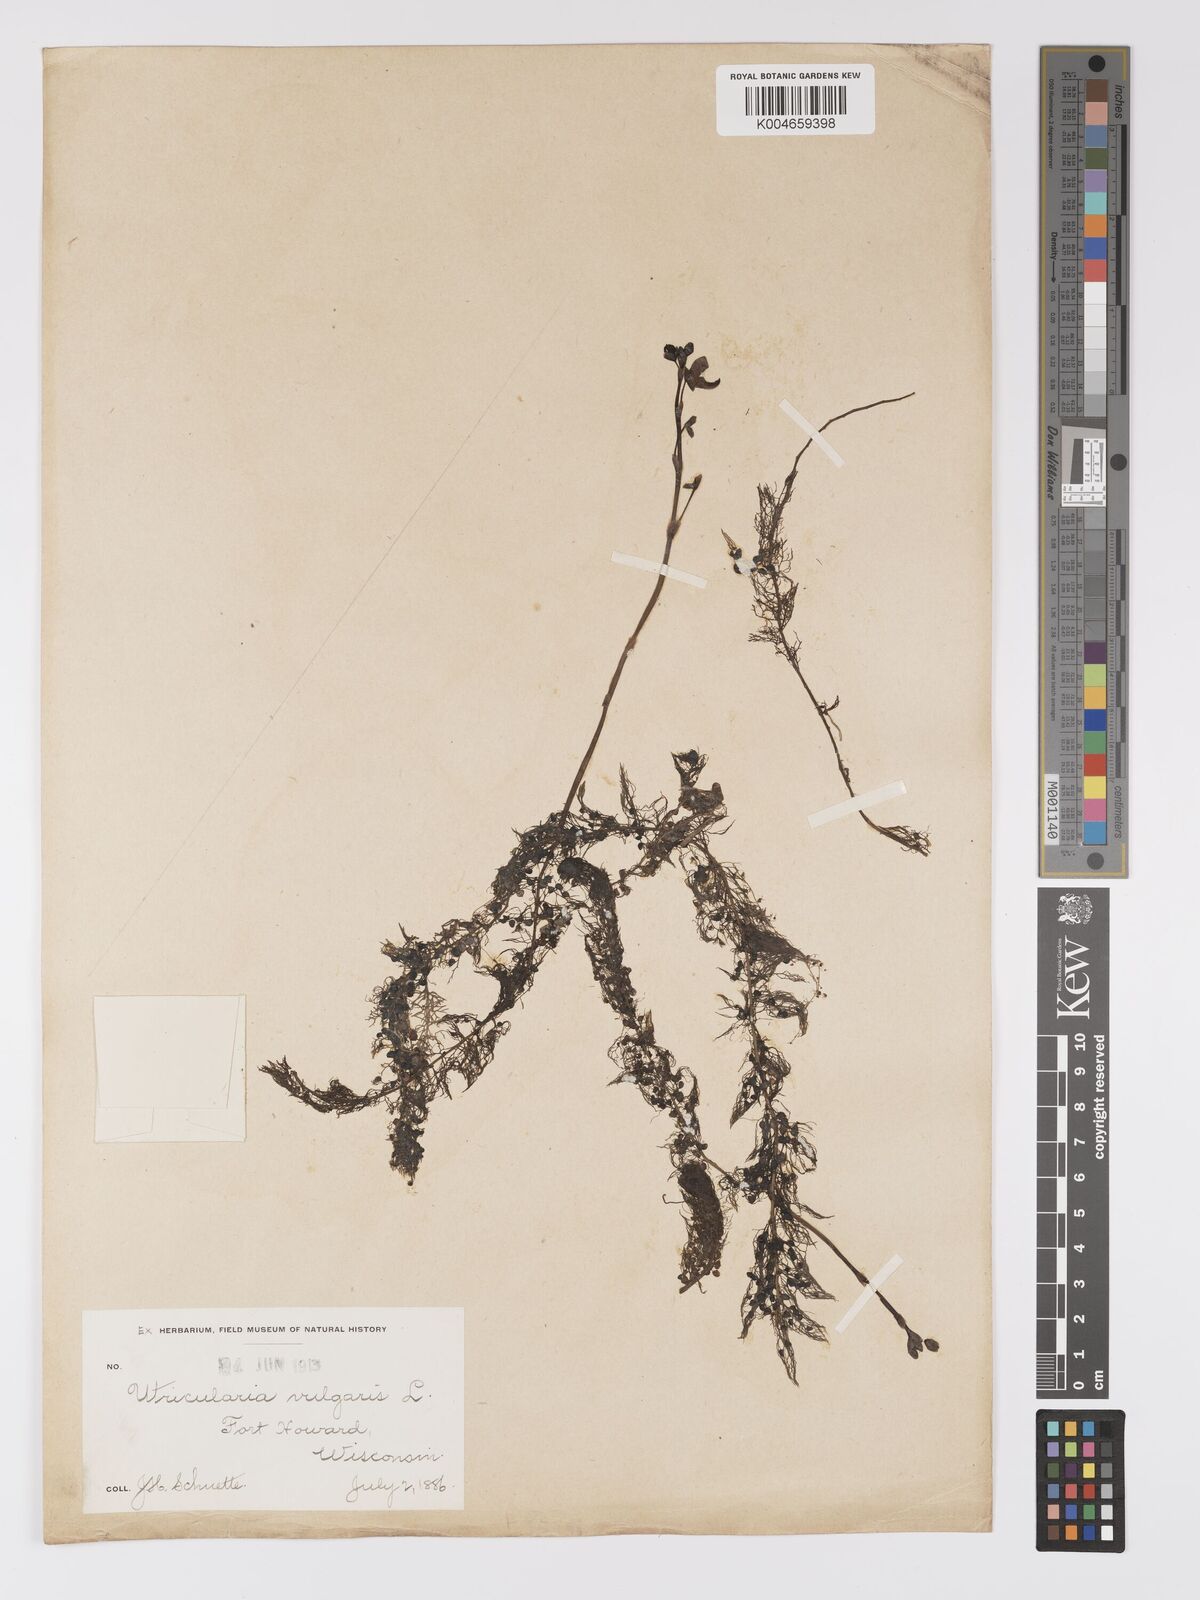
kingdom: Plantae
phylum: Tracheophyta
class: Magnoliopsida
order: Lamiales
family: Lentibulariaceae
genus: Utricularia
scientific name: Utricularia macrorhiza
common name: Common bladderwort
